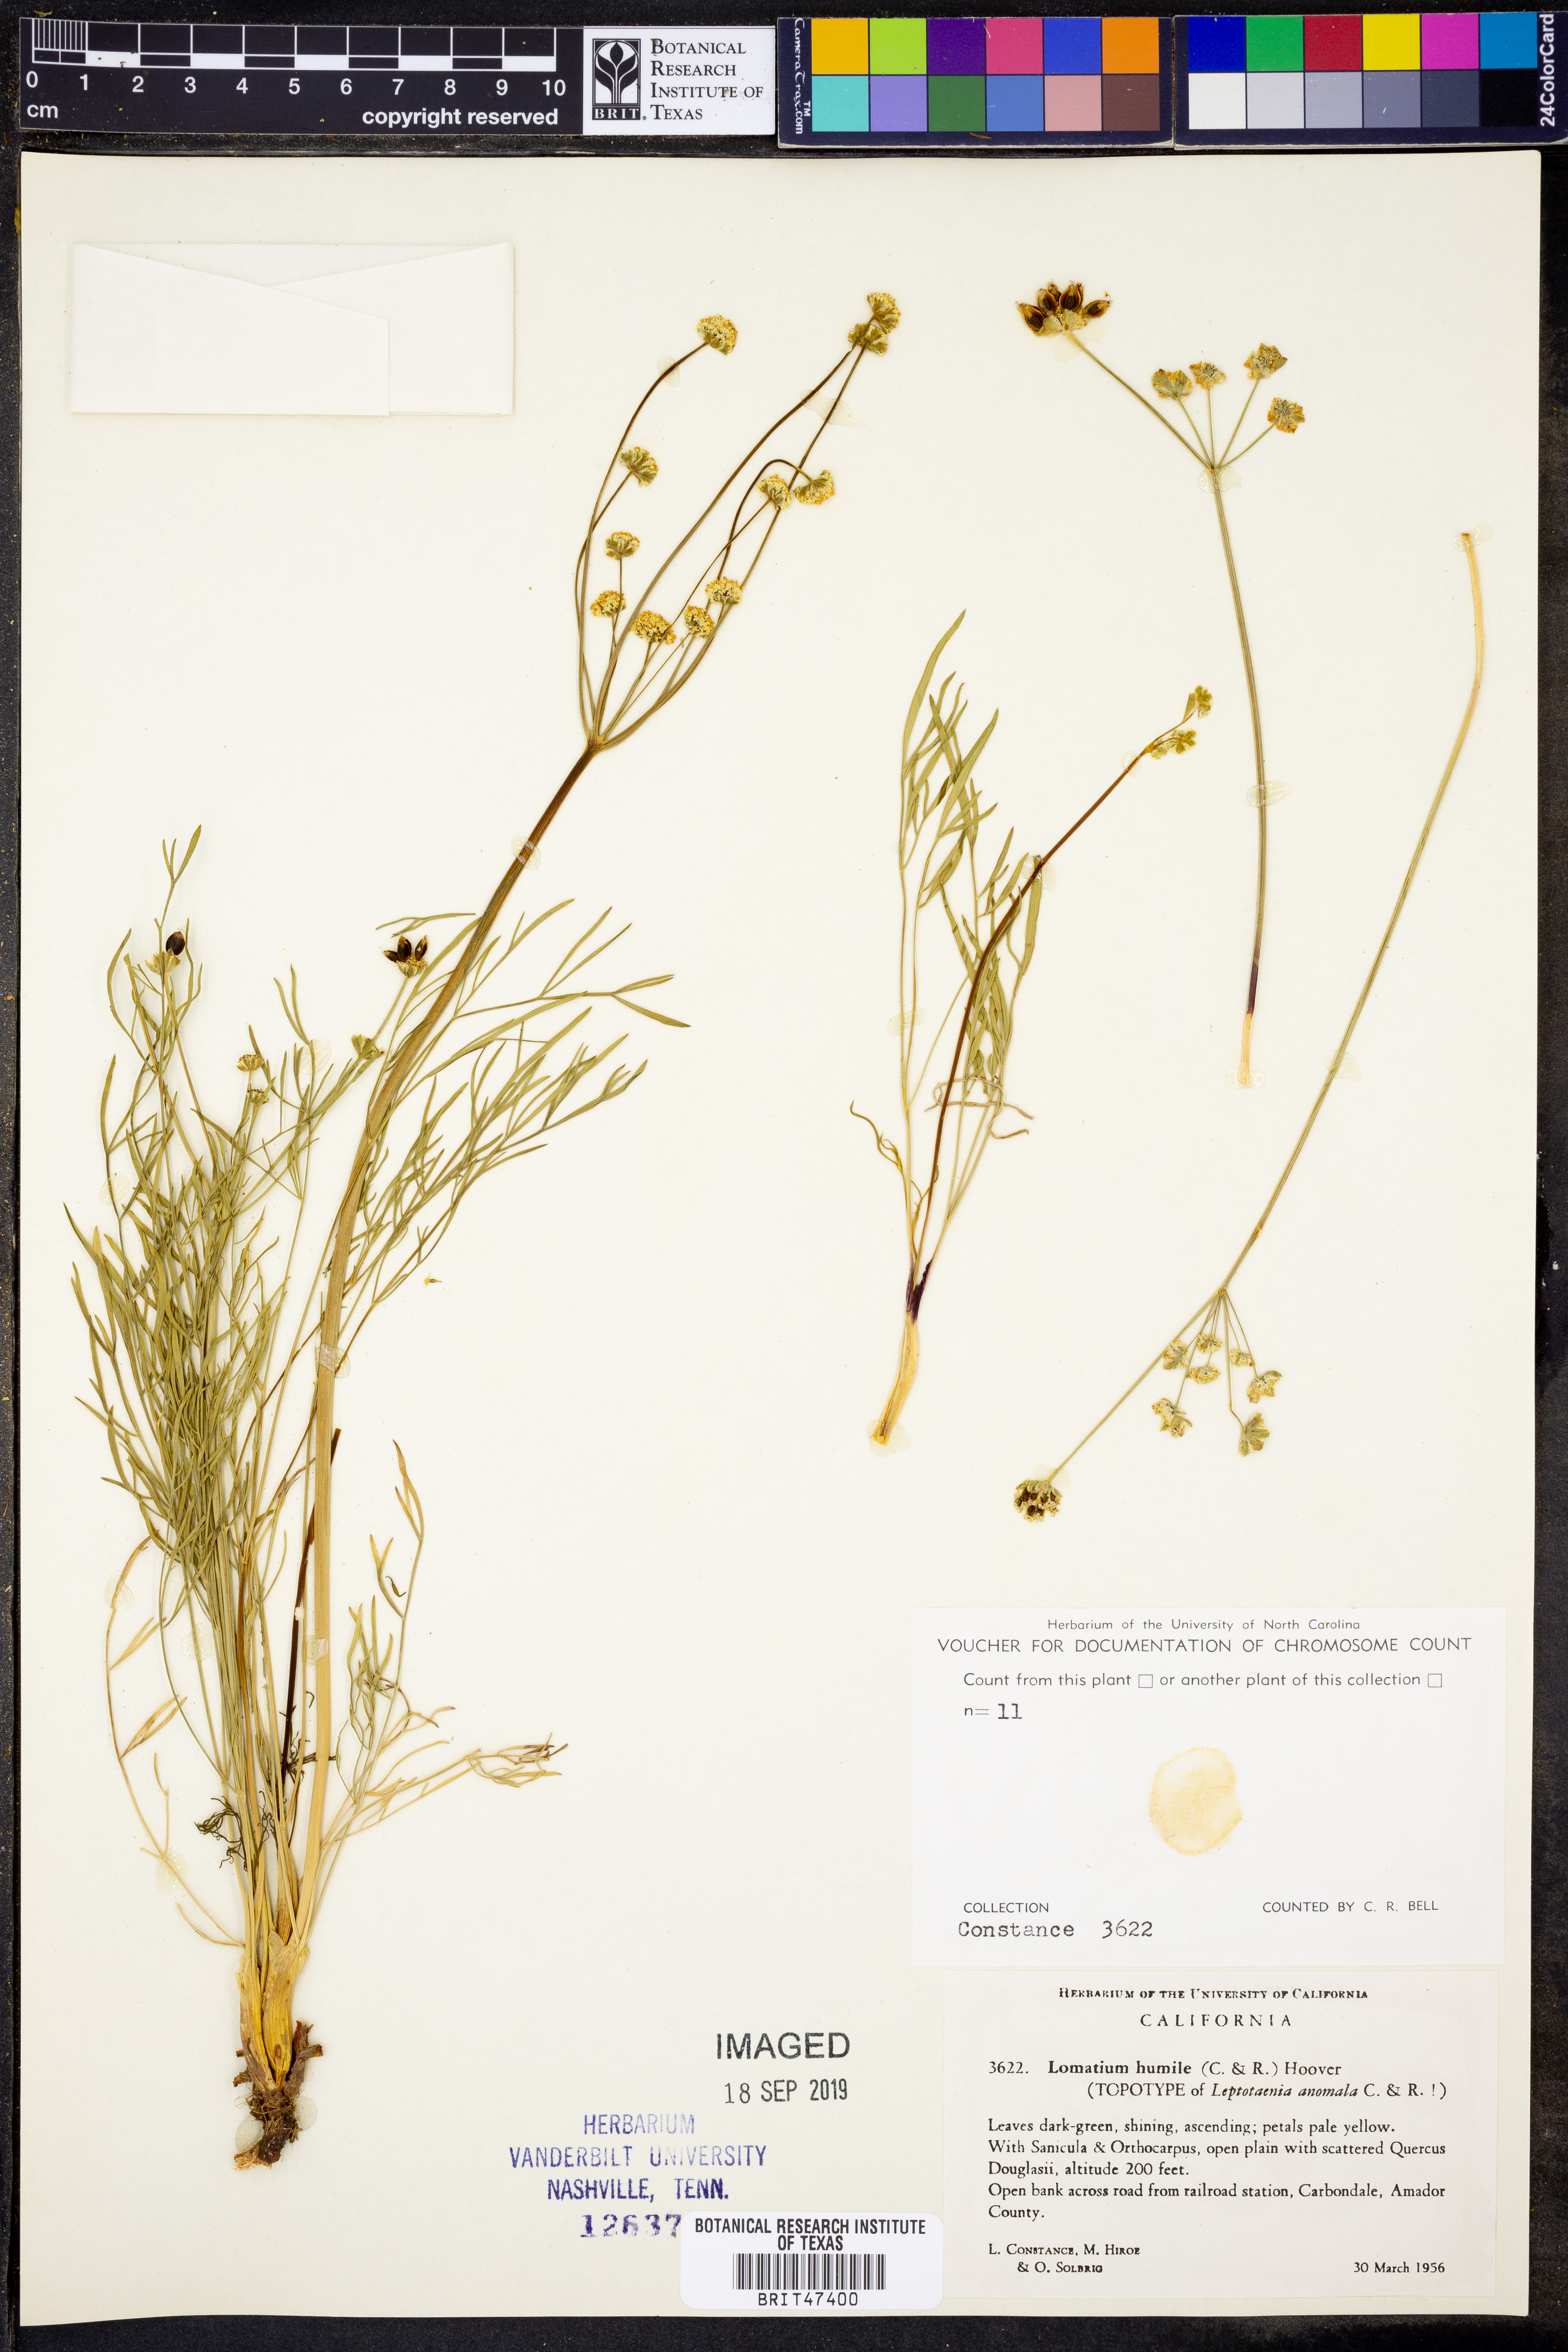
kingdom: Plantae
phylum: Tracheophyta
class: Magnoliopsida
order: Apiales
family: Apiaceae
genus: Lomatium
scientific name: Lomatium caruifolium
